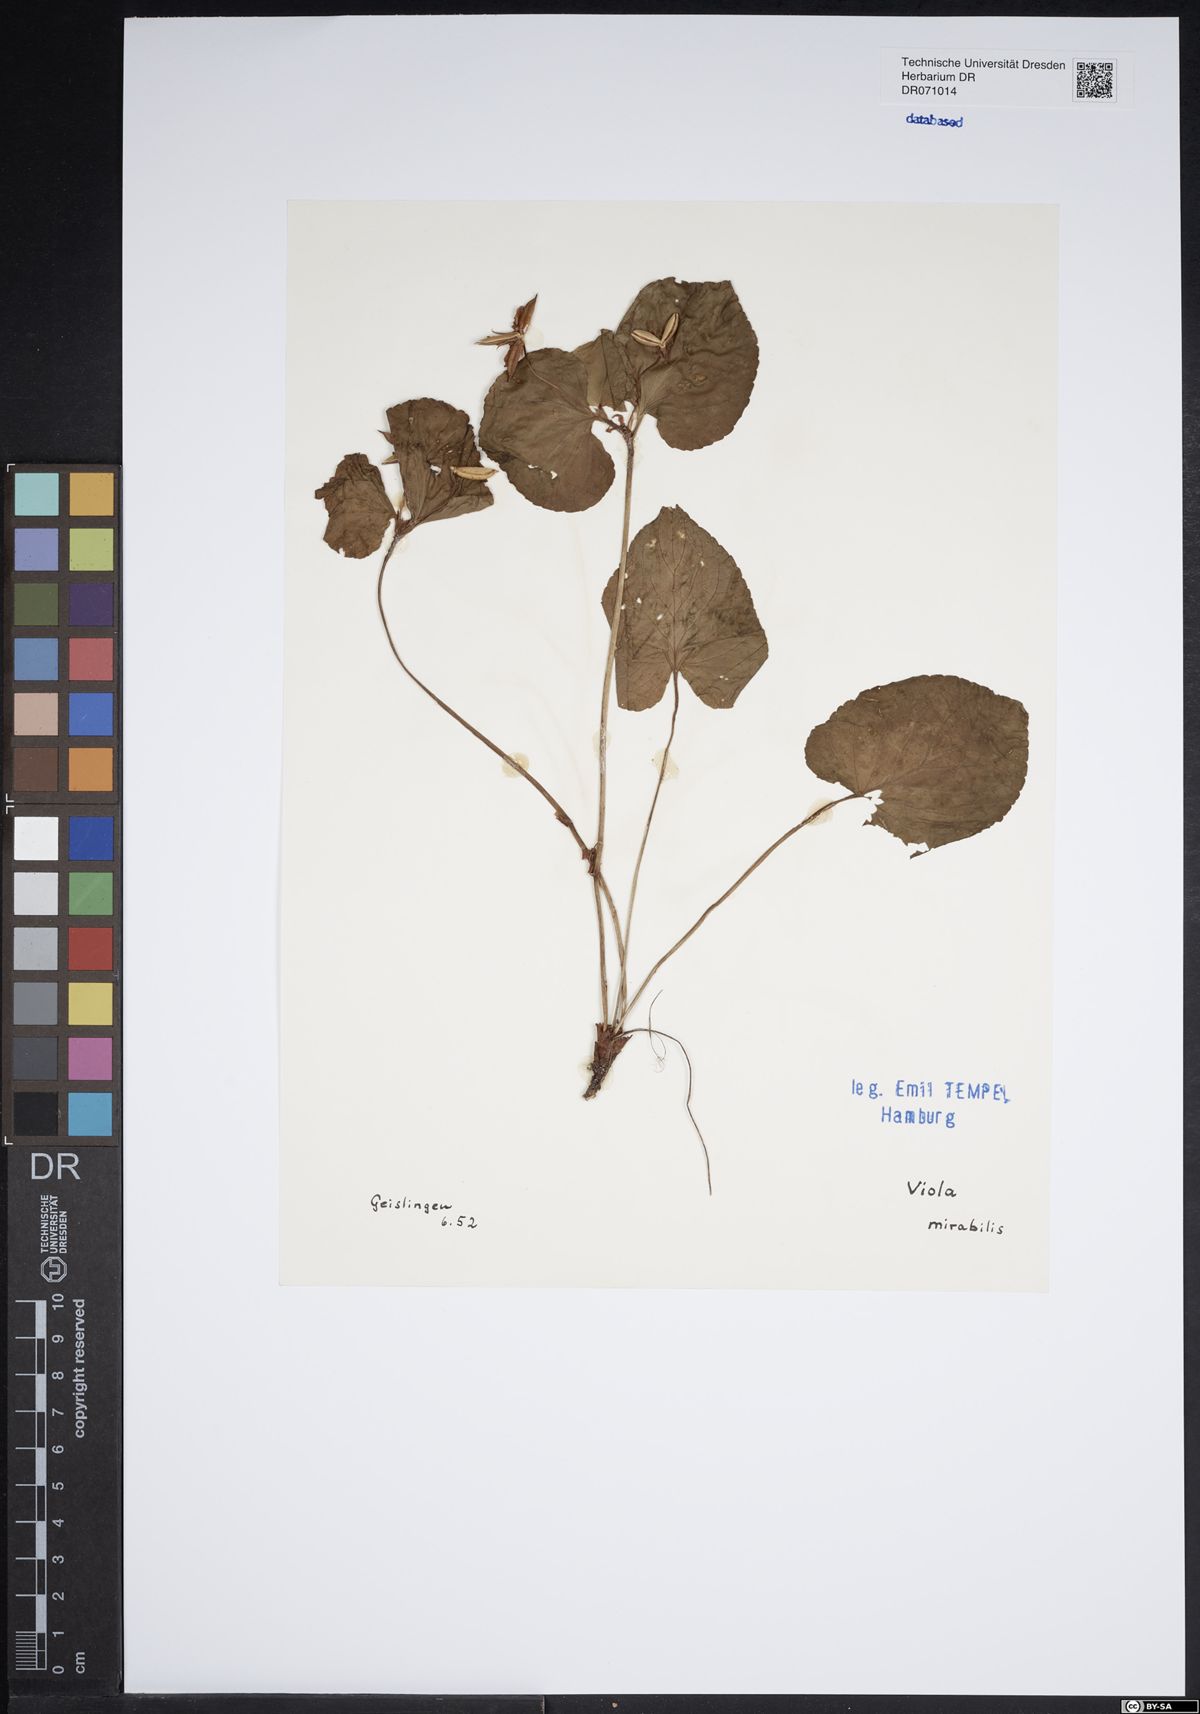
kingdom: Plantae
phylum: Tracheophyta
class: Magnoliopsida
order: Malpighiales
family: Violaceae
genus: Viola
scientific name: Viola mirabilis
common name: Wonder violet
